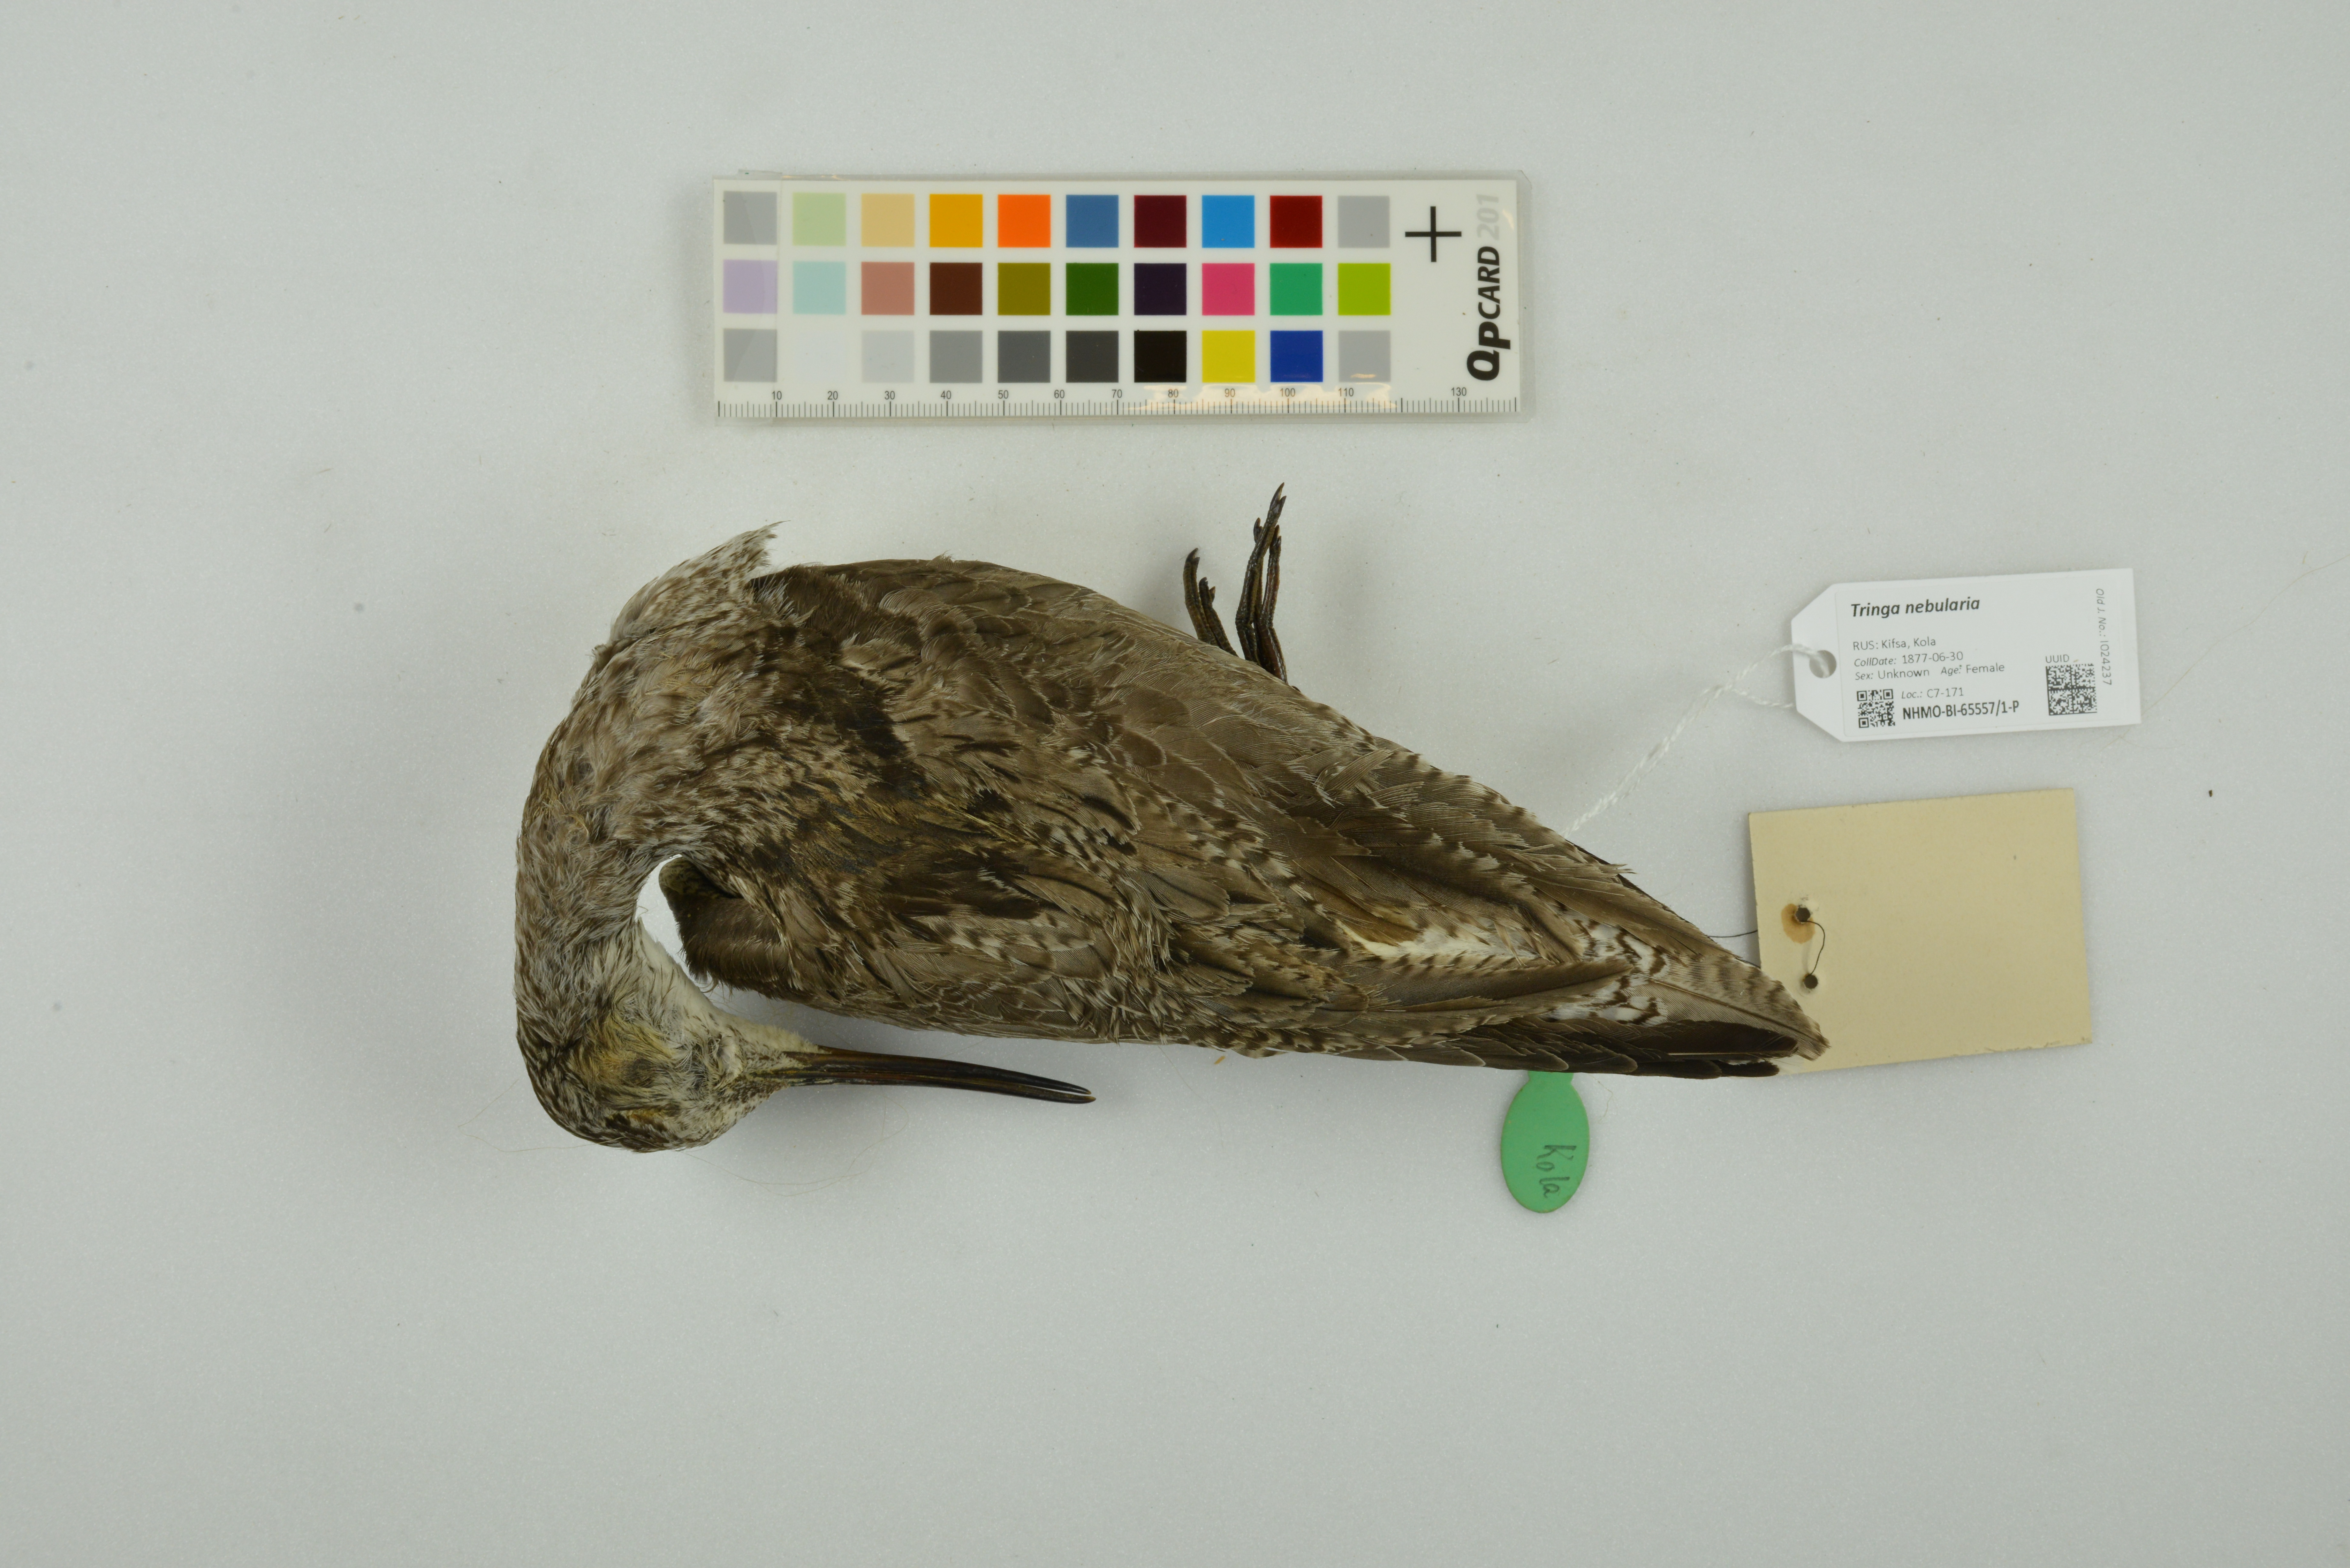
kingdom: Animalia
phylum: Chordata
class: Aves
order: Charadriiformes
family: Scolopacidae
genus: Tringa
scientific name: Tringa nebularia
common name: Common greenshank
